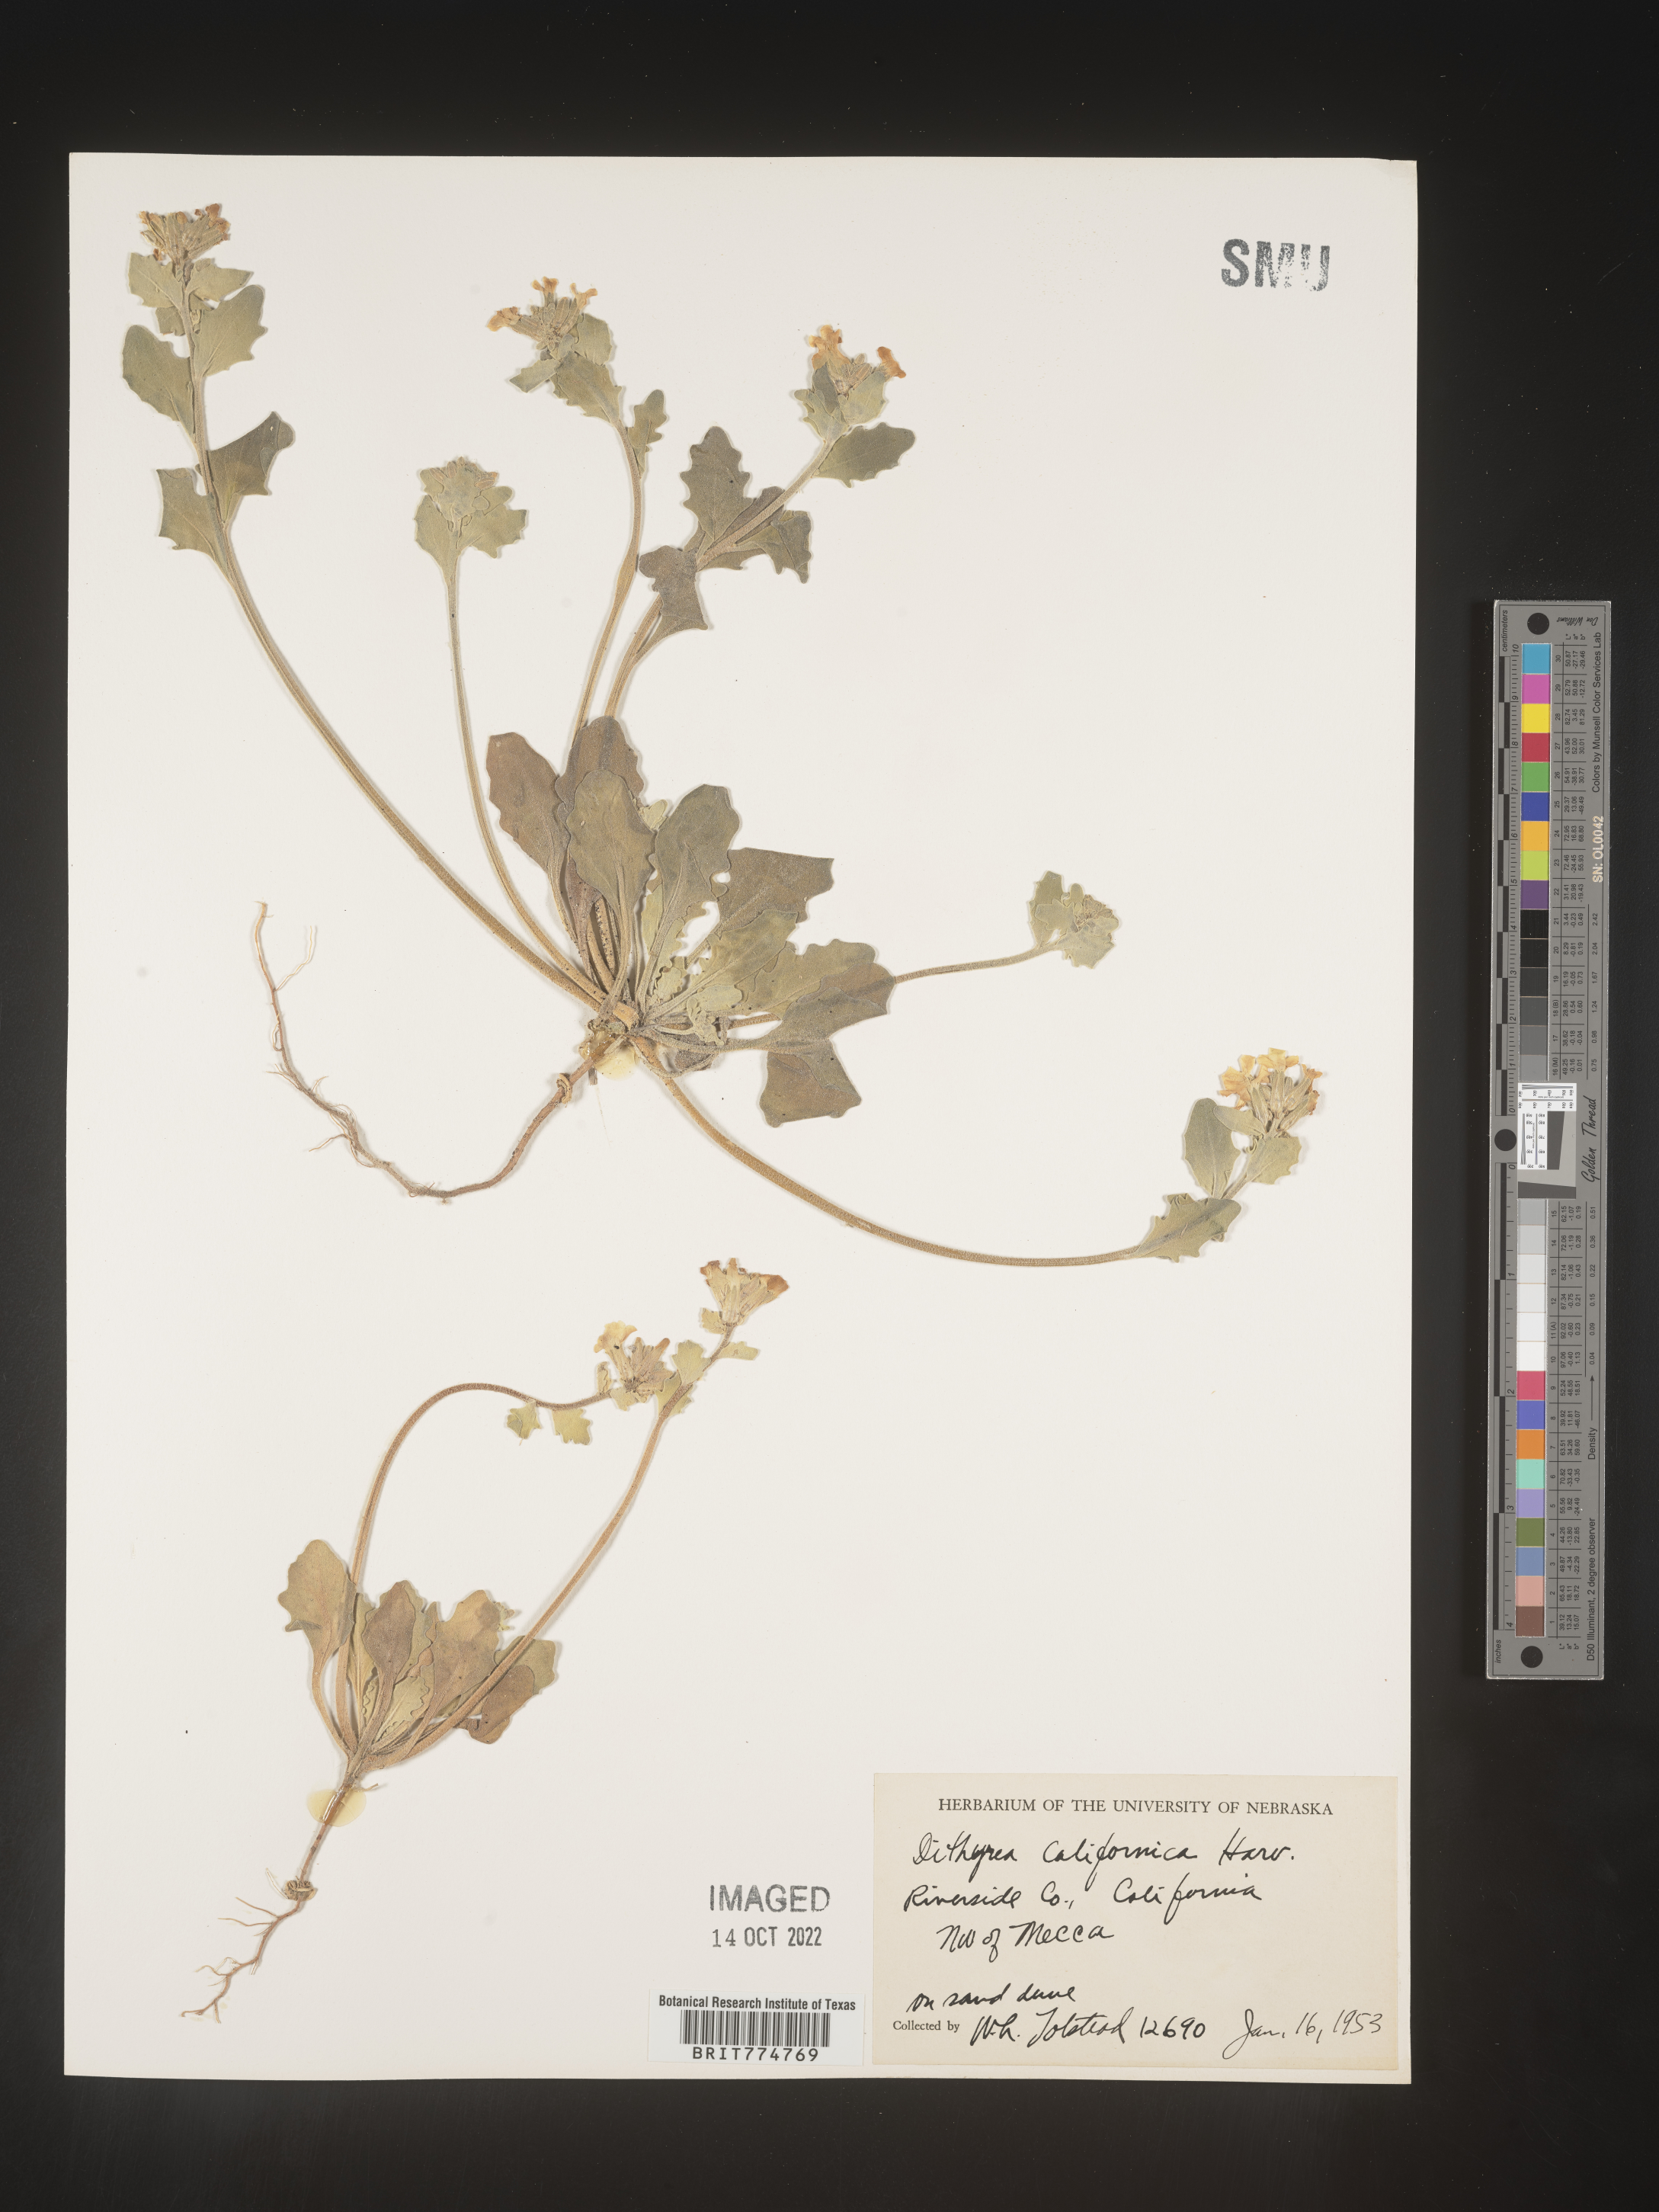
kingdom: Plantae
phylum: Tracheophyta
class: Magnoliopsida
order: Brassicales
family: Brassicaceae
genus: Dithyrea
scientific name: Dithyrea californica
